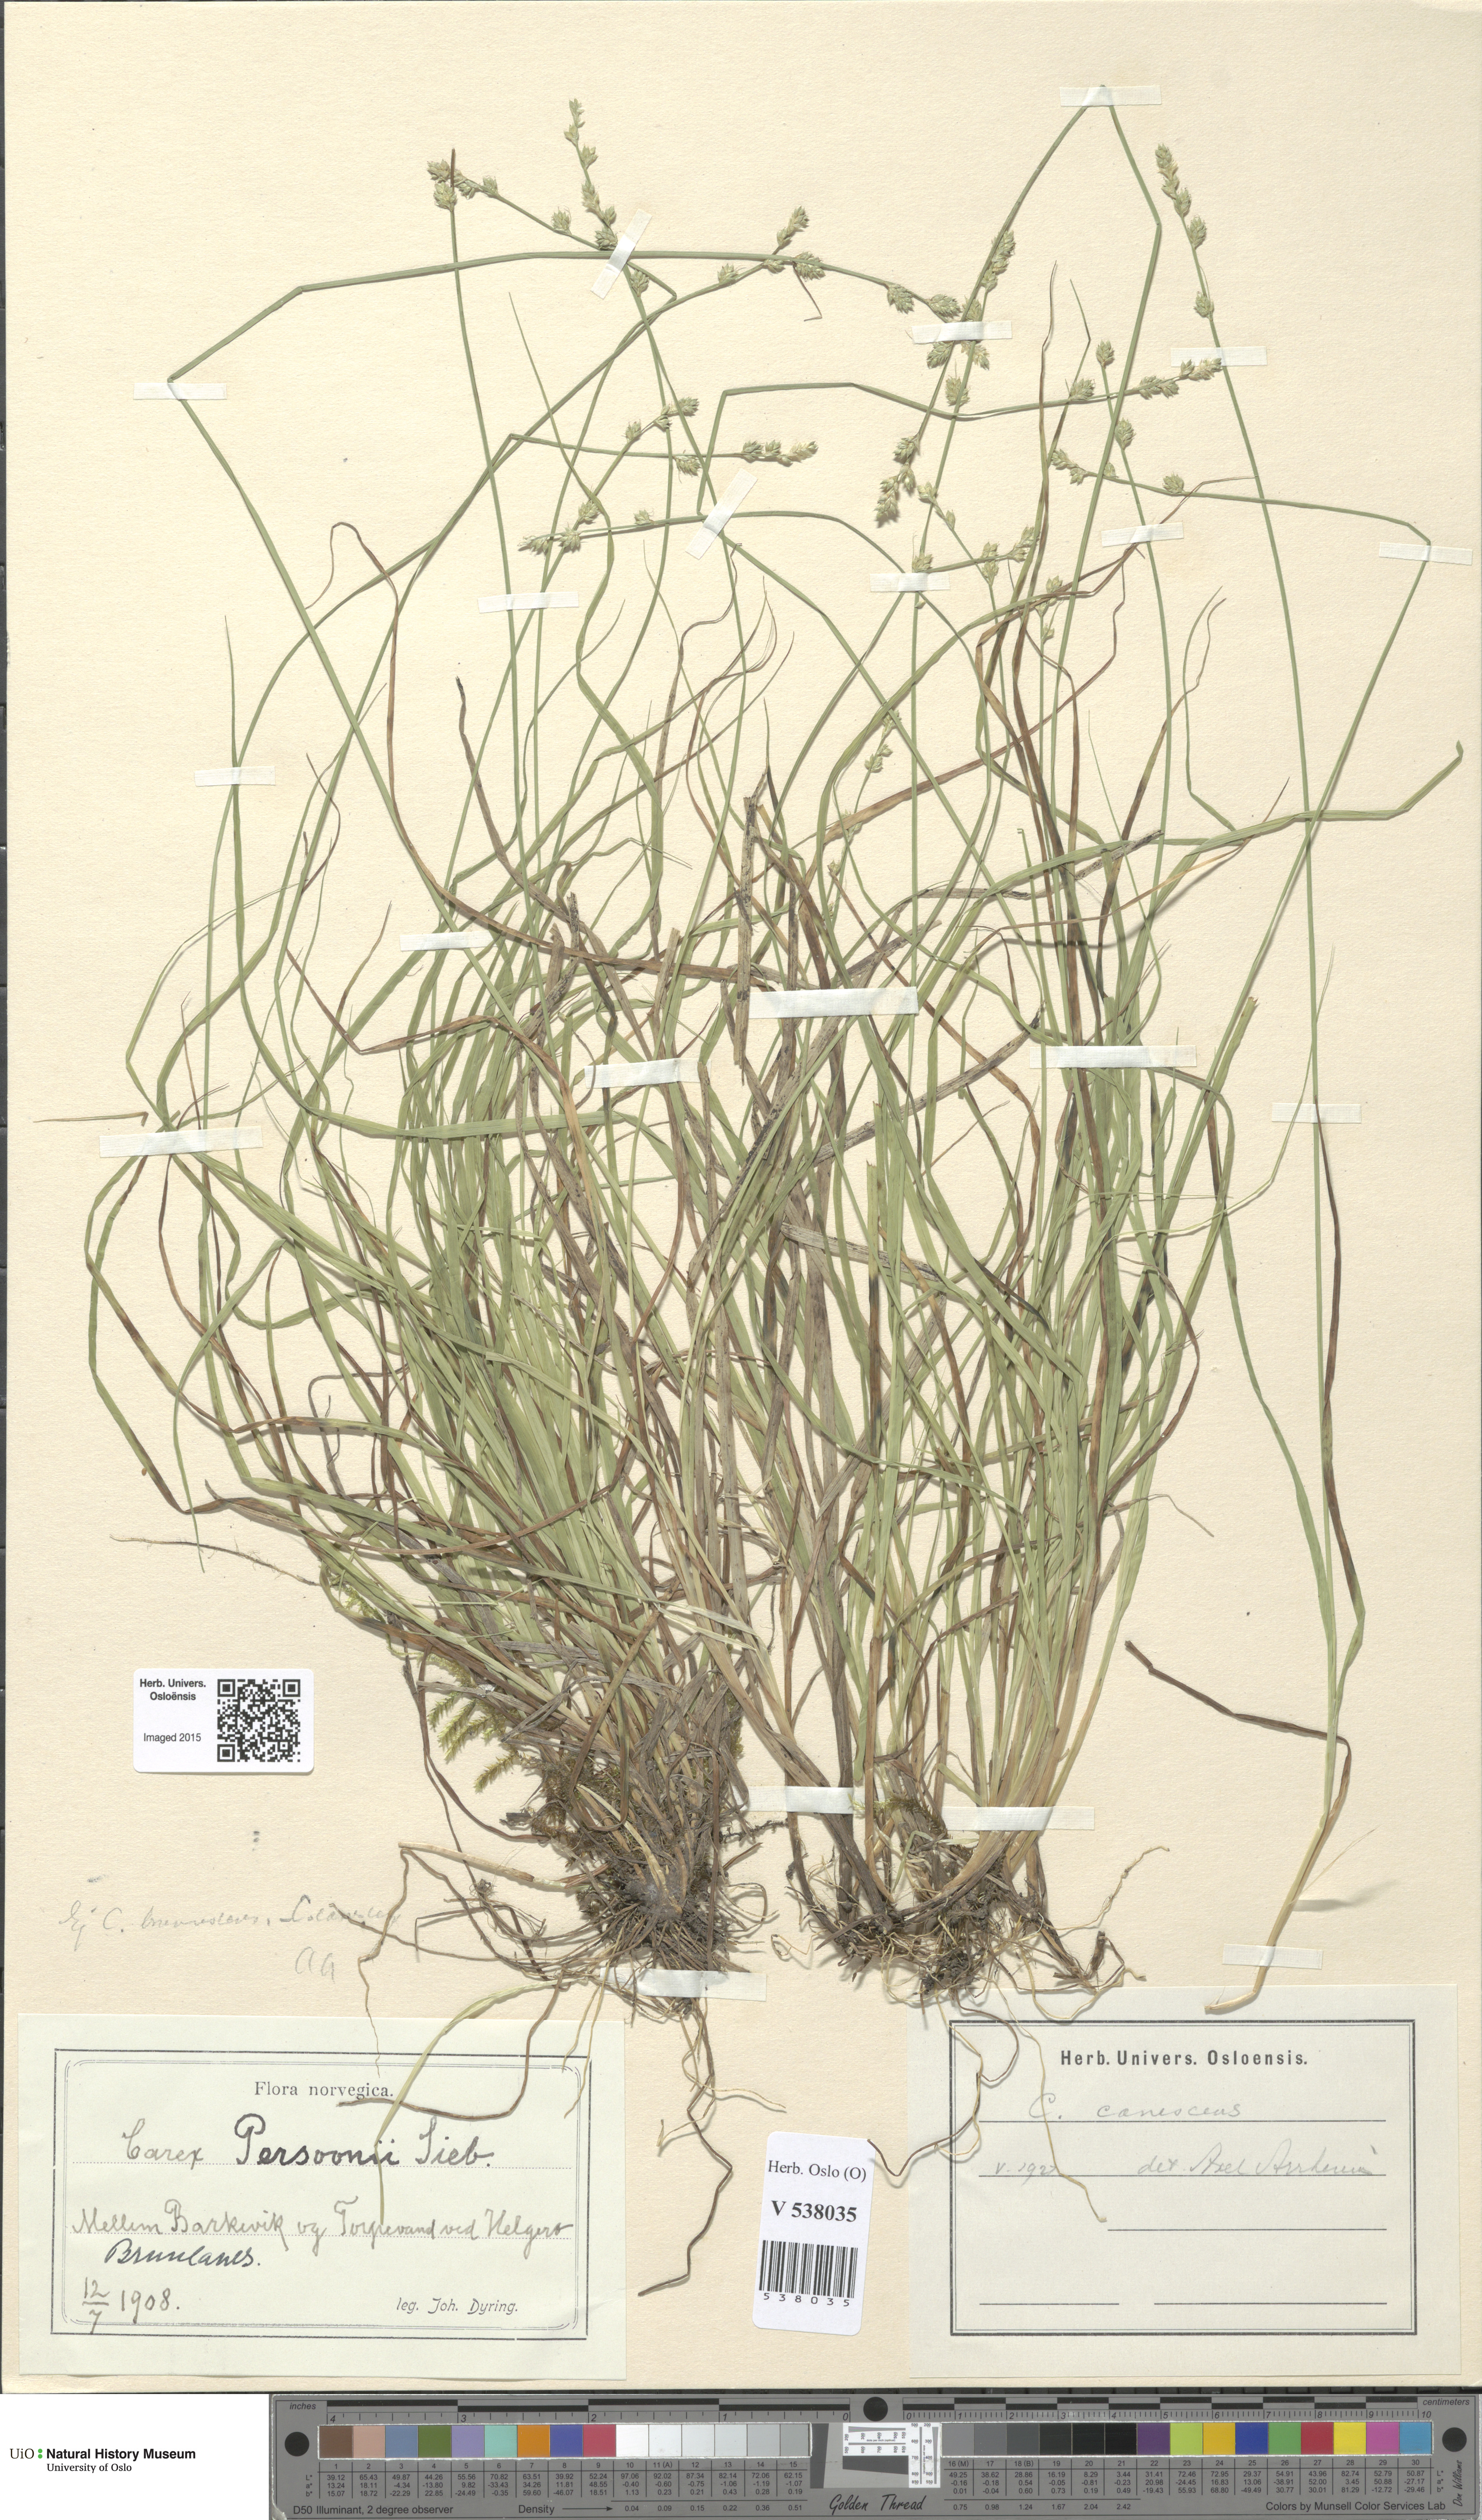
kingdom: Plantae
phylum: Tracheophyta
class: Liliopsida
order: Poales
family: Cyperaceae
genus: Carex
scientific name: Carex canescens
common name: White sedge
